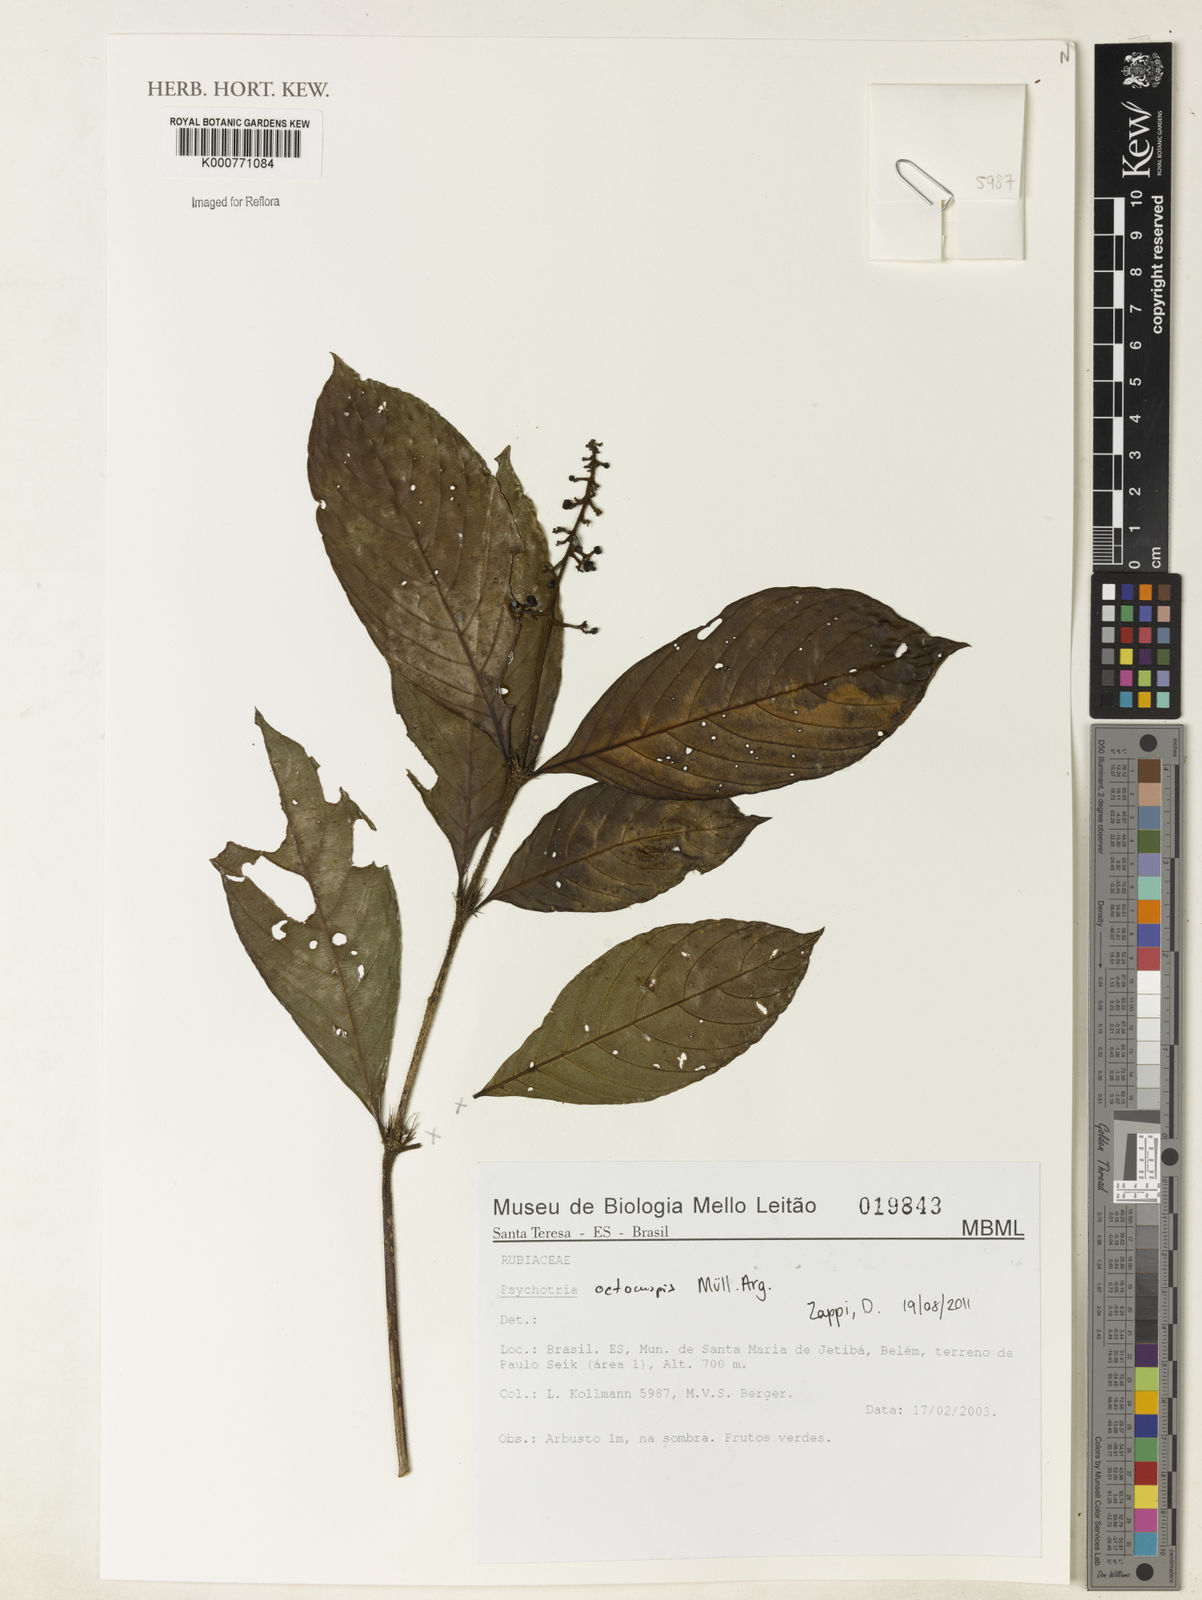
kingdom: Plantae
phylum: Tracheophyta
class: Magnoliopsida
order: Gentianales
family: Rubiaceae
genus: Psychotria
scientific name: Psychotria
